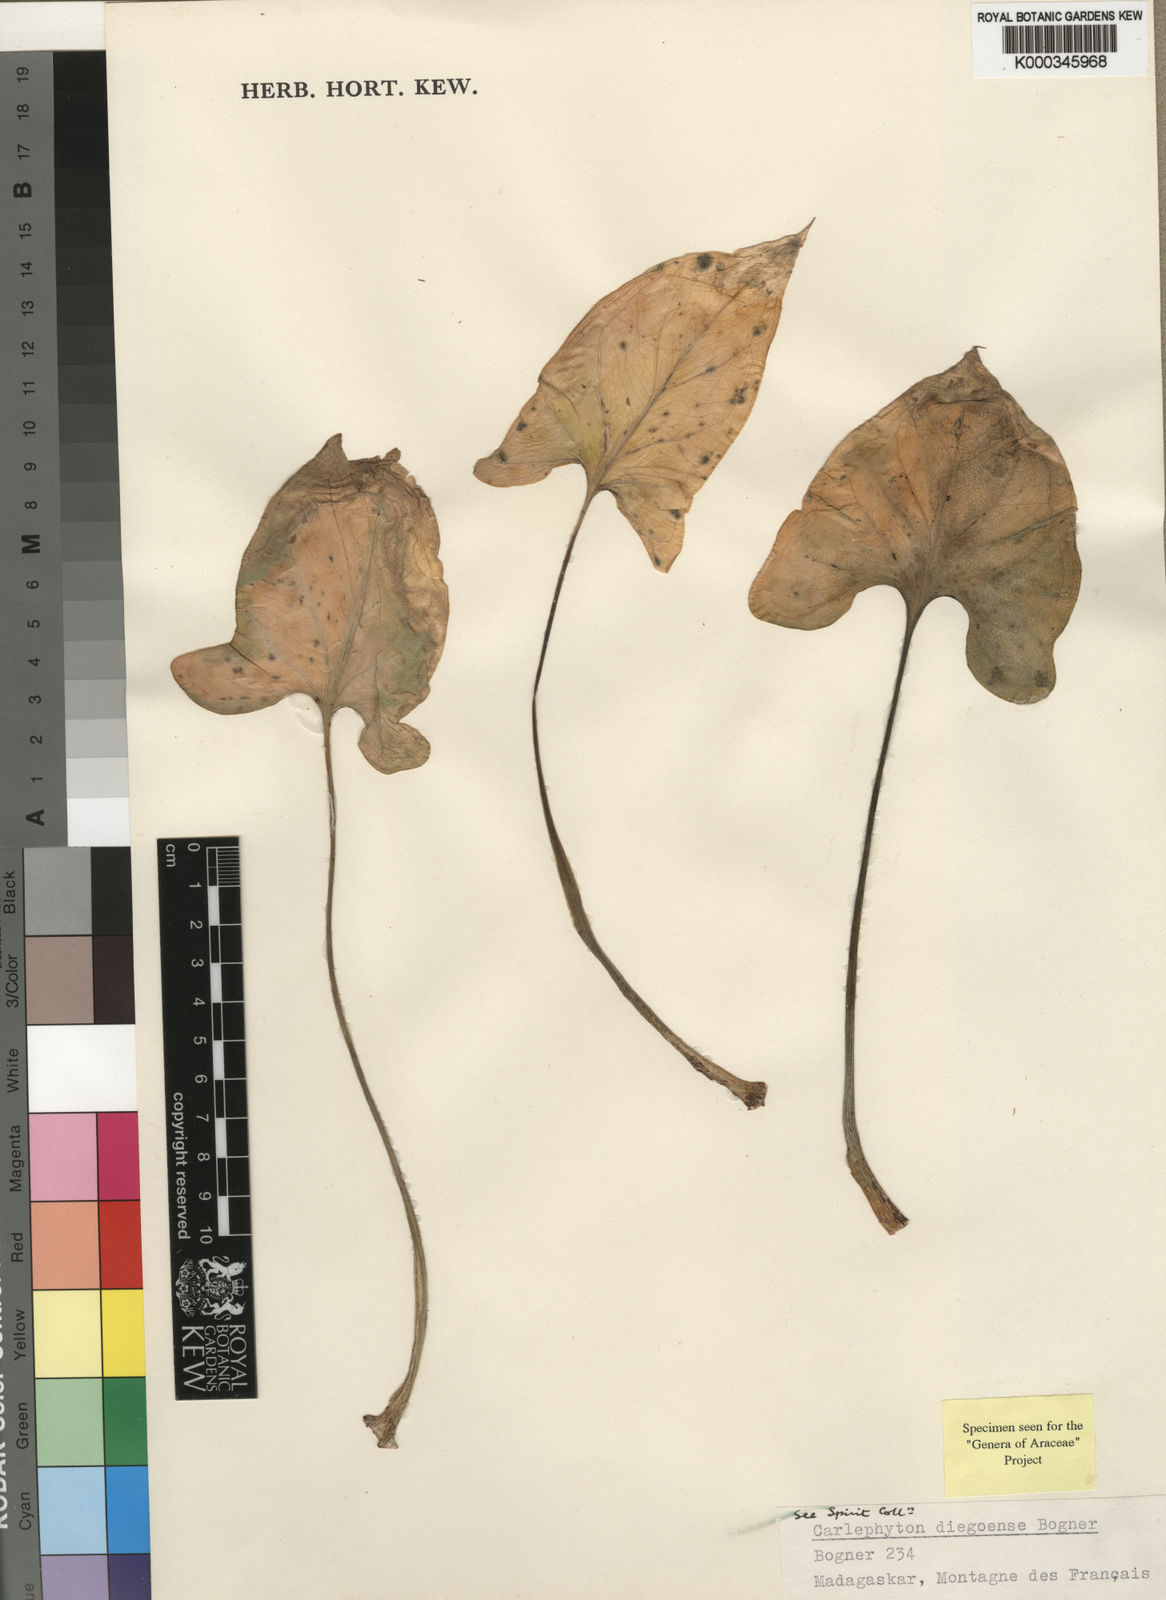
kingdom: Plantae
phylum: Tracheophyta
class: Liliopsida
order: Alismatales
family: Araceae
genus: Carlephyton
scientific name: Carlephyton diegoense
